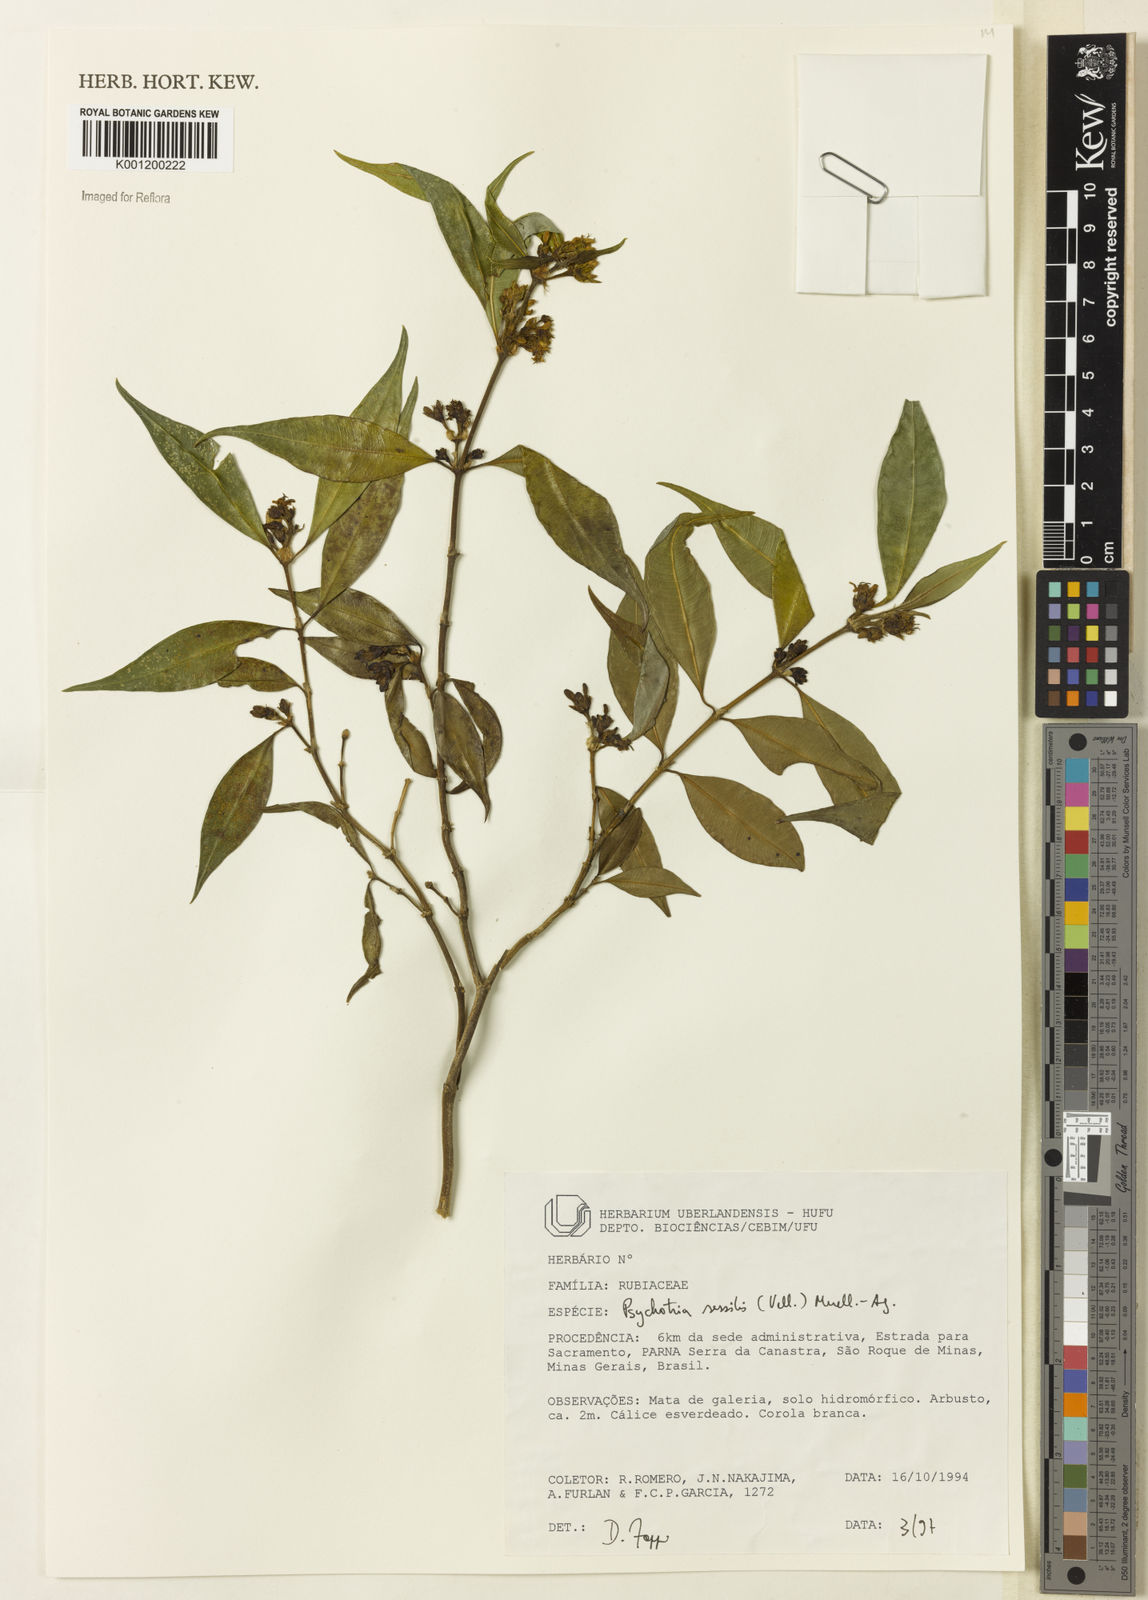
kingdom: Plantae
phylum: Tracheophyta
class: Magnoliopsida
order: Gentianales
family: Rubiaceae
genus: Rudgea
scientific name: Rudgea sessilis
